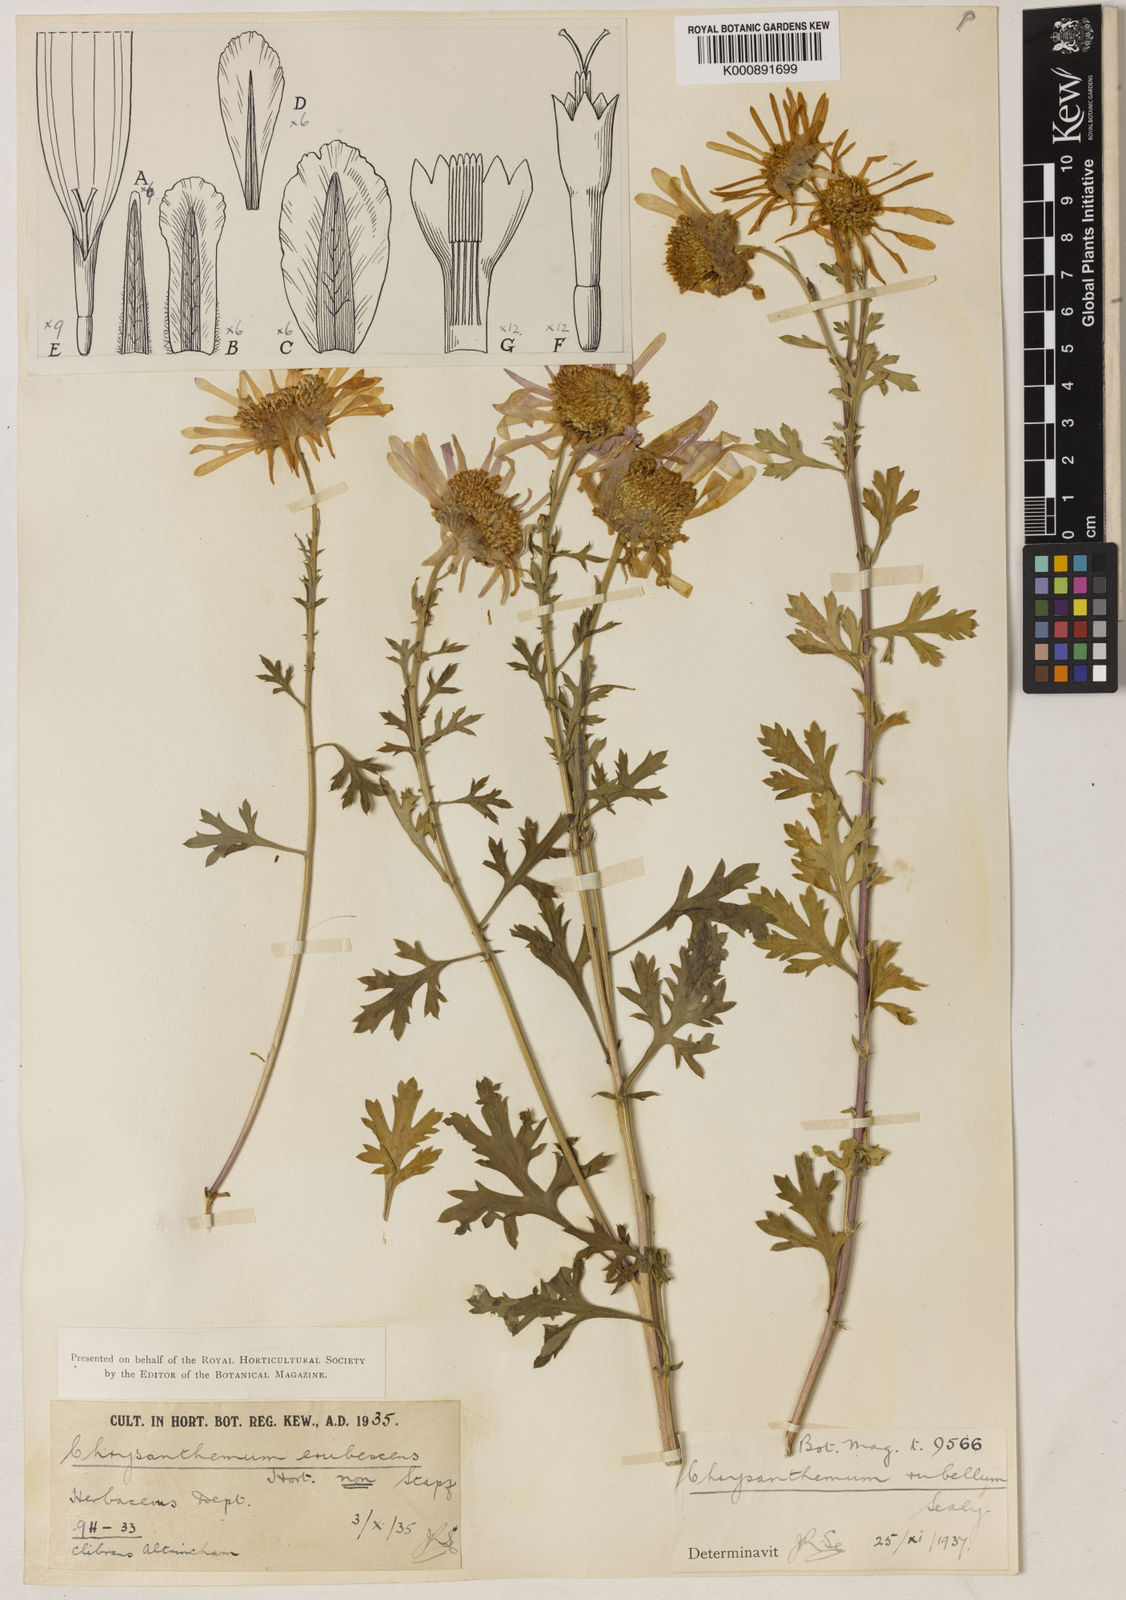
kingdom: Plantae
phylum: Tracheophyta
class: Magnoliopsida
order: Asterales
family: Asteraceae
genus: Chrysanthemum
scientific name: Chrysanthemum zawadzkii
